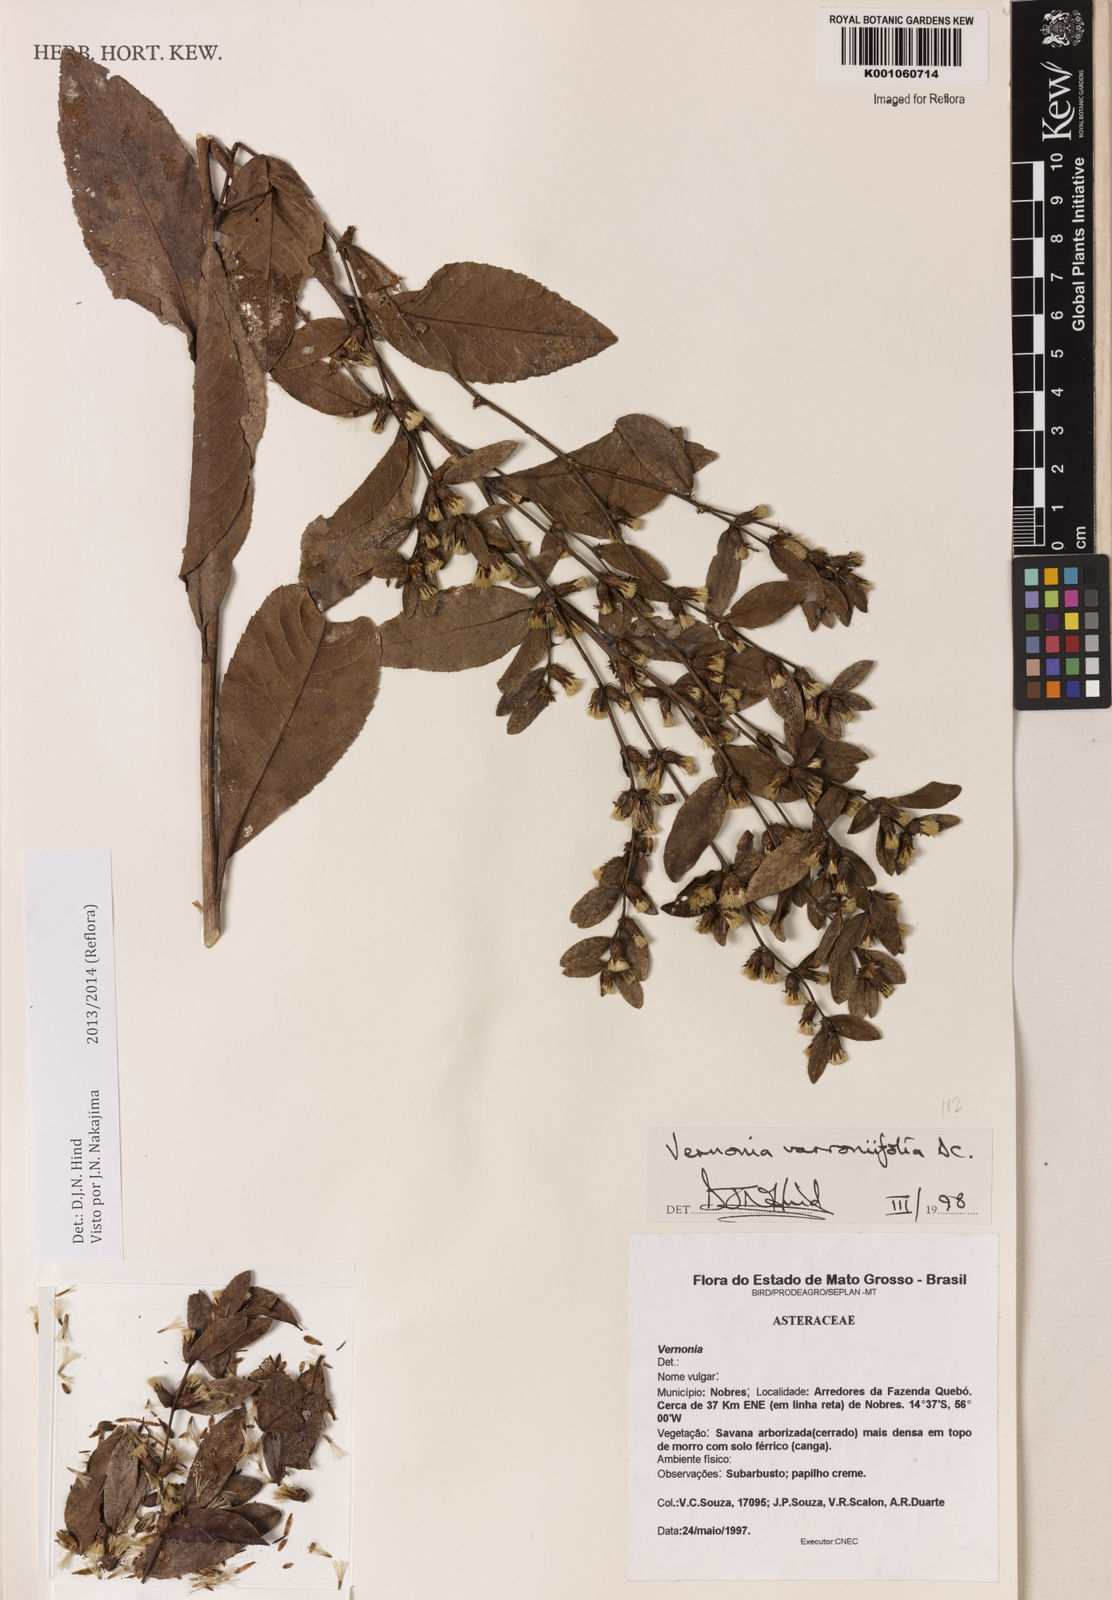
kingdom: Plantae
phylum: Tracheophyta
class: Magnoliopsida
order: Asterales
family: Asteraceae
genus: Lessingianthus
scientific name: Lessingianthus varroniifolius
